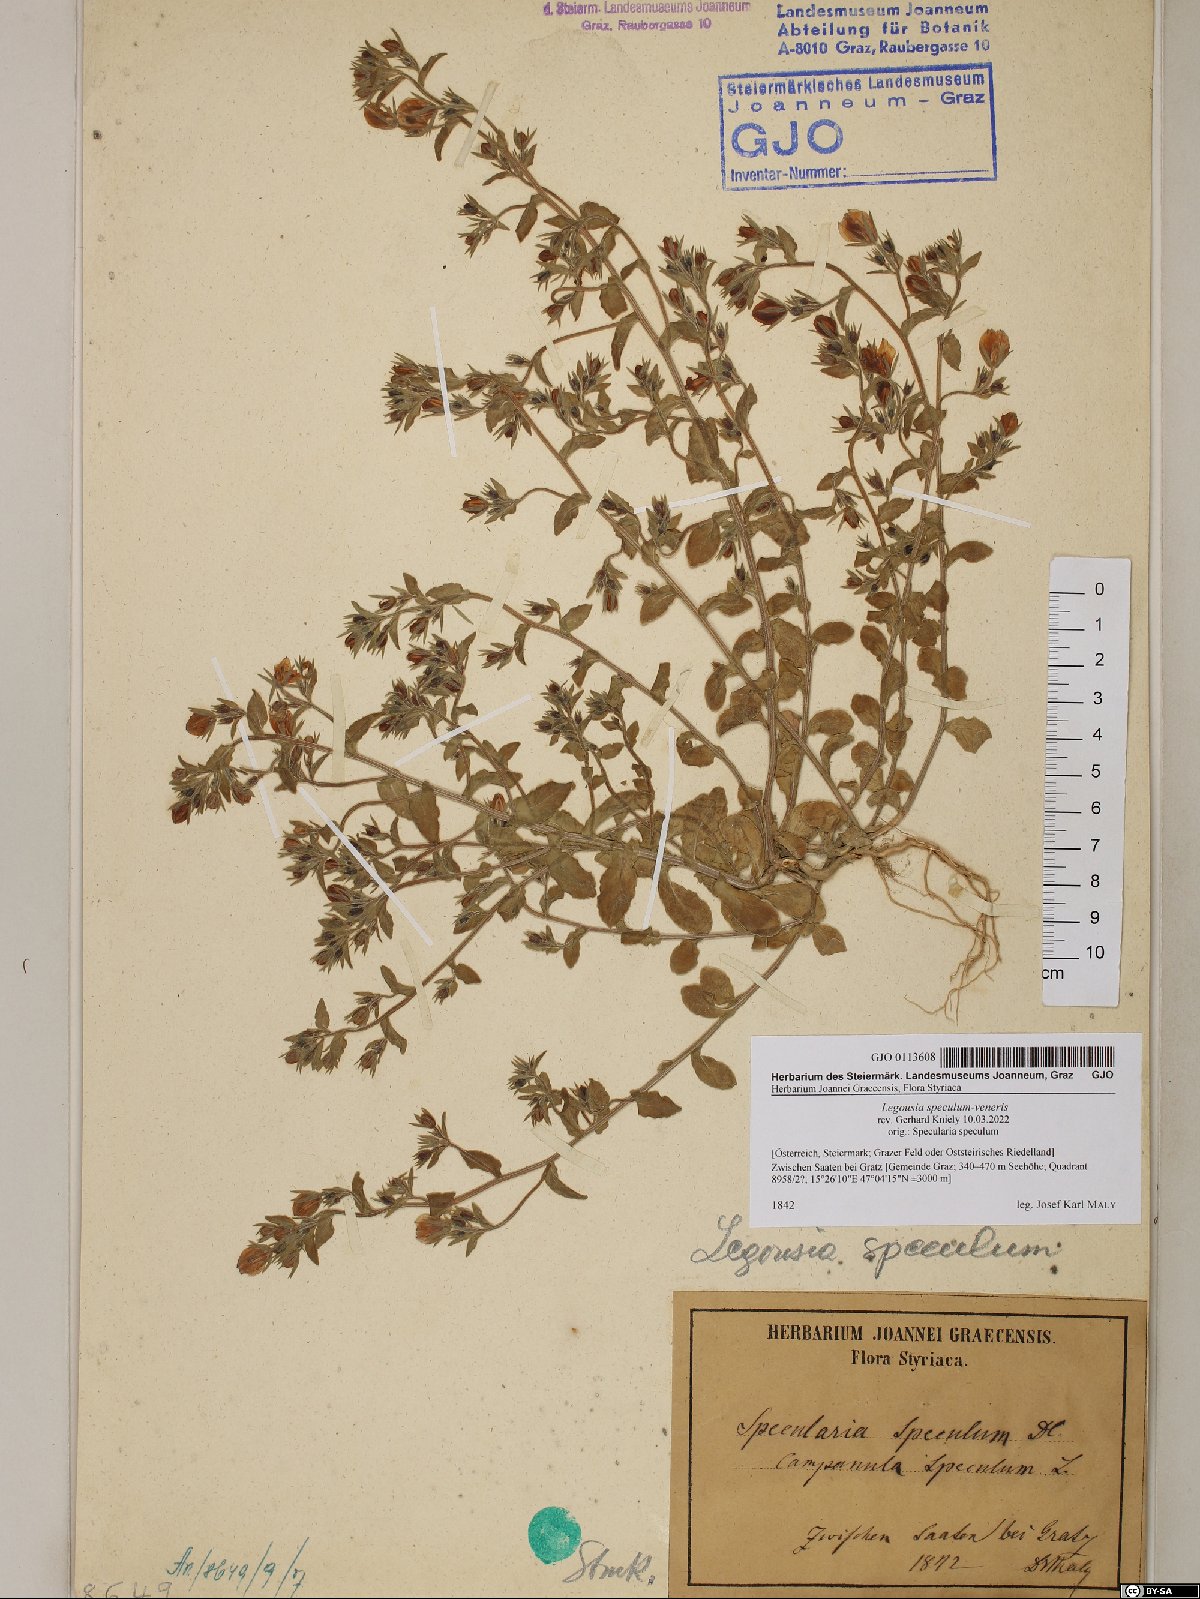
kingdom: Plantae
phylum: Tracheophyta
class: Magnoliopsida
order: Asterales
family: Campanulaceae
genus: Legousia
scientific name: Legousia speculum-veneris
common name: Large venus's-looking-glass
